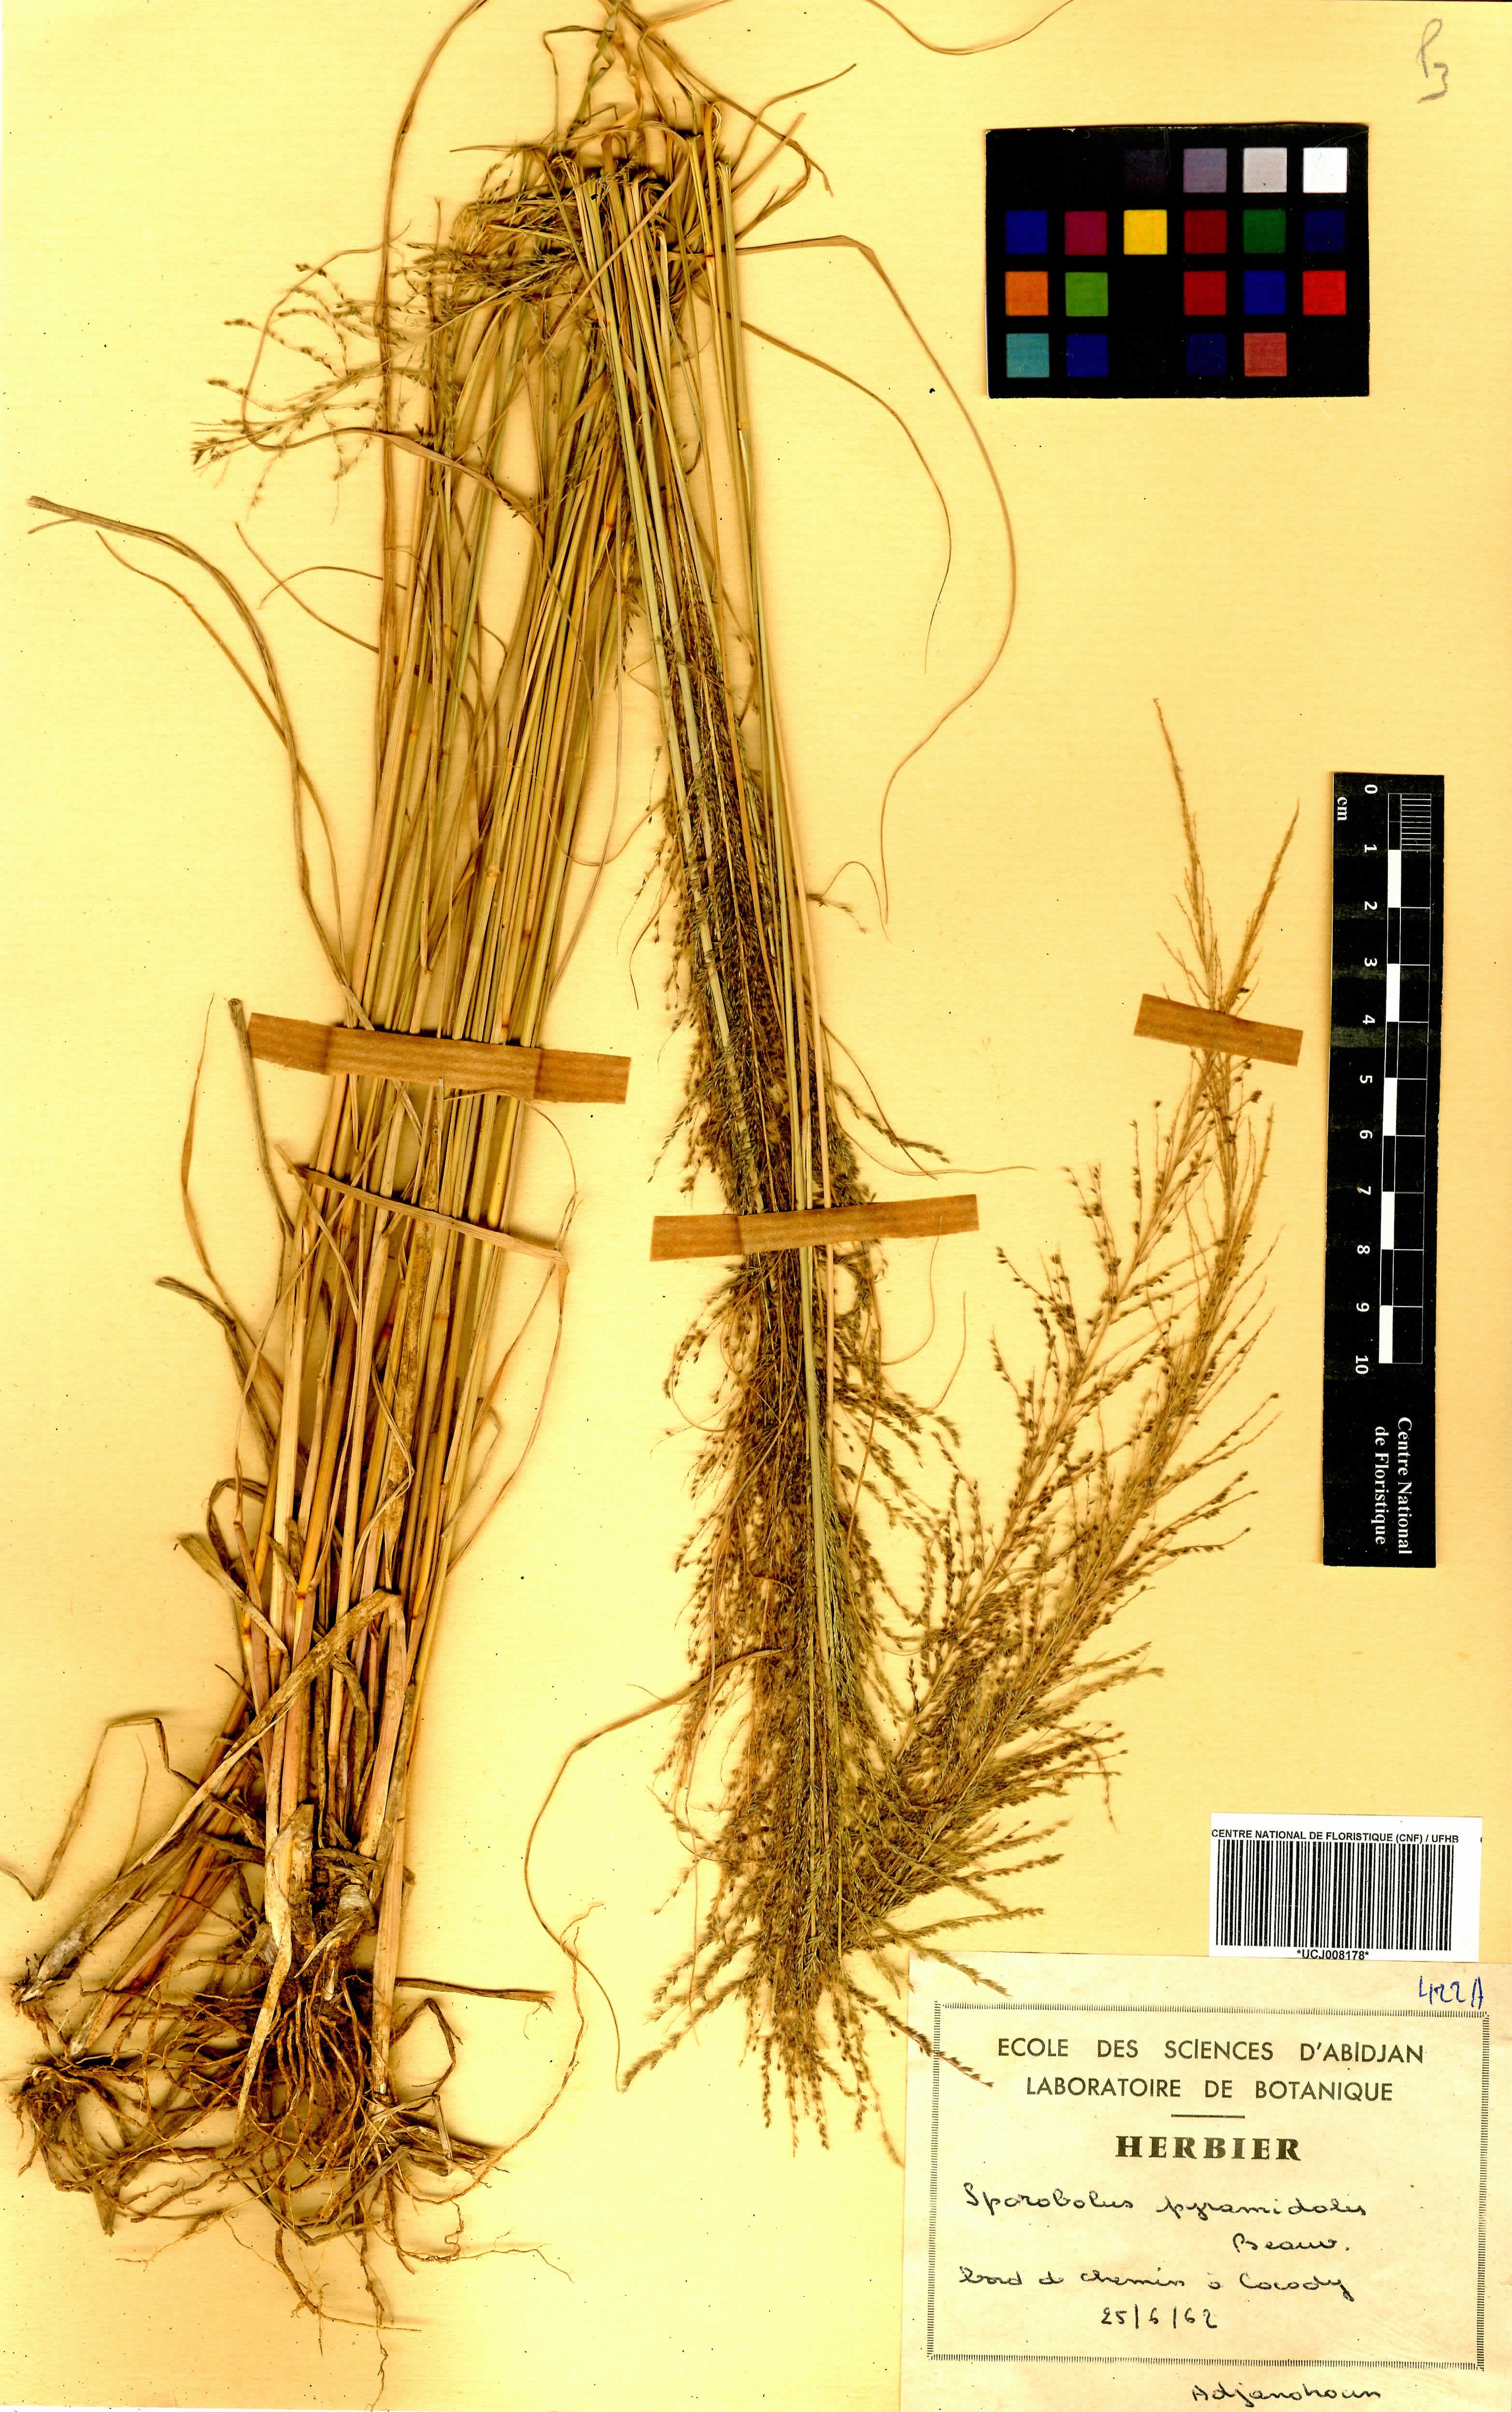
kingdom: Plantae
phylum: Tracheophyta
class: Liliopsida
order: Poales
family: Poaceae
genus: Sporobolus
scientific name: Sporobolus pyramidalis
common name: West indian dropseed
